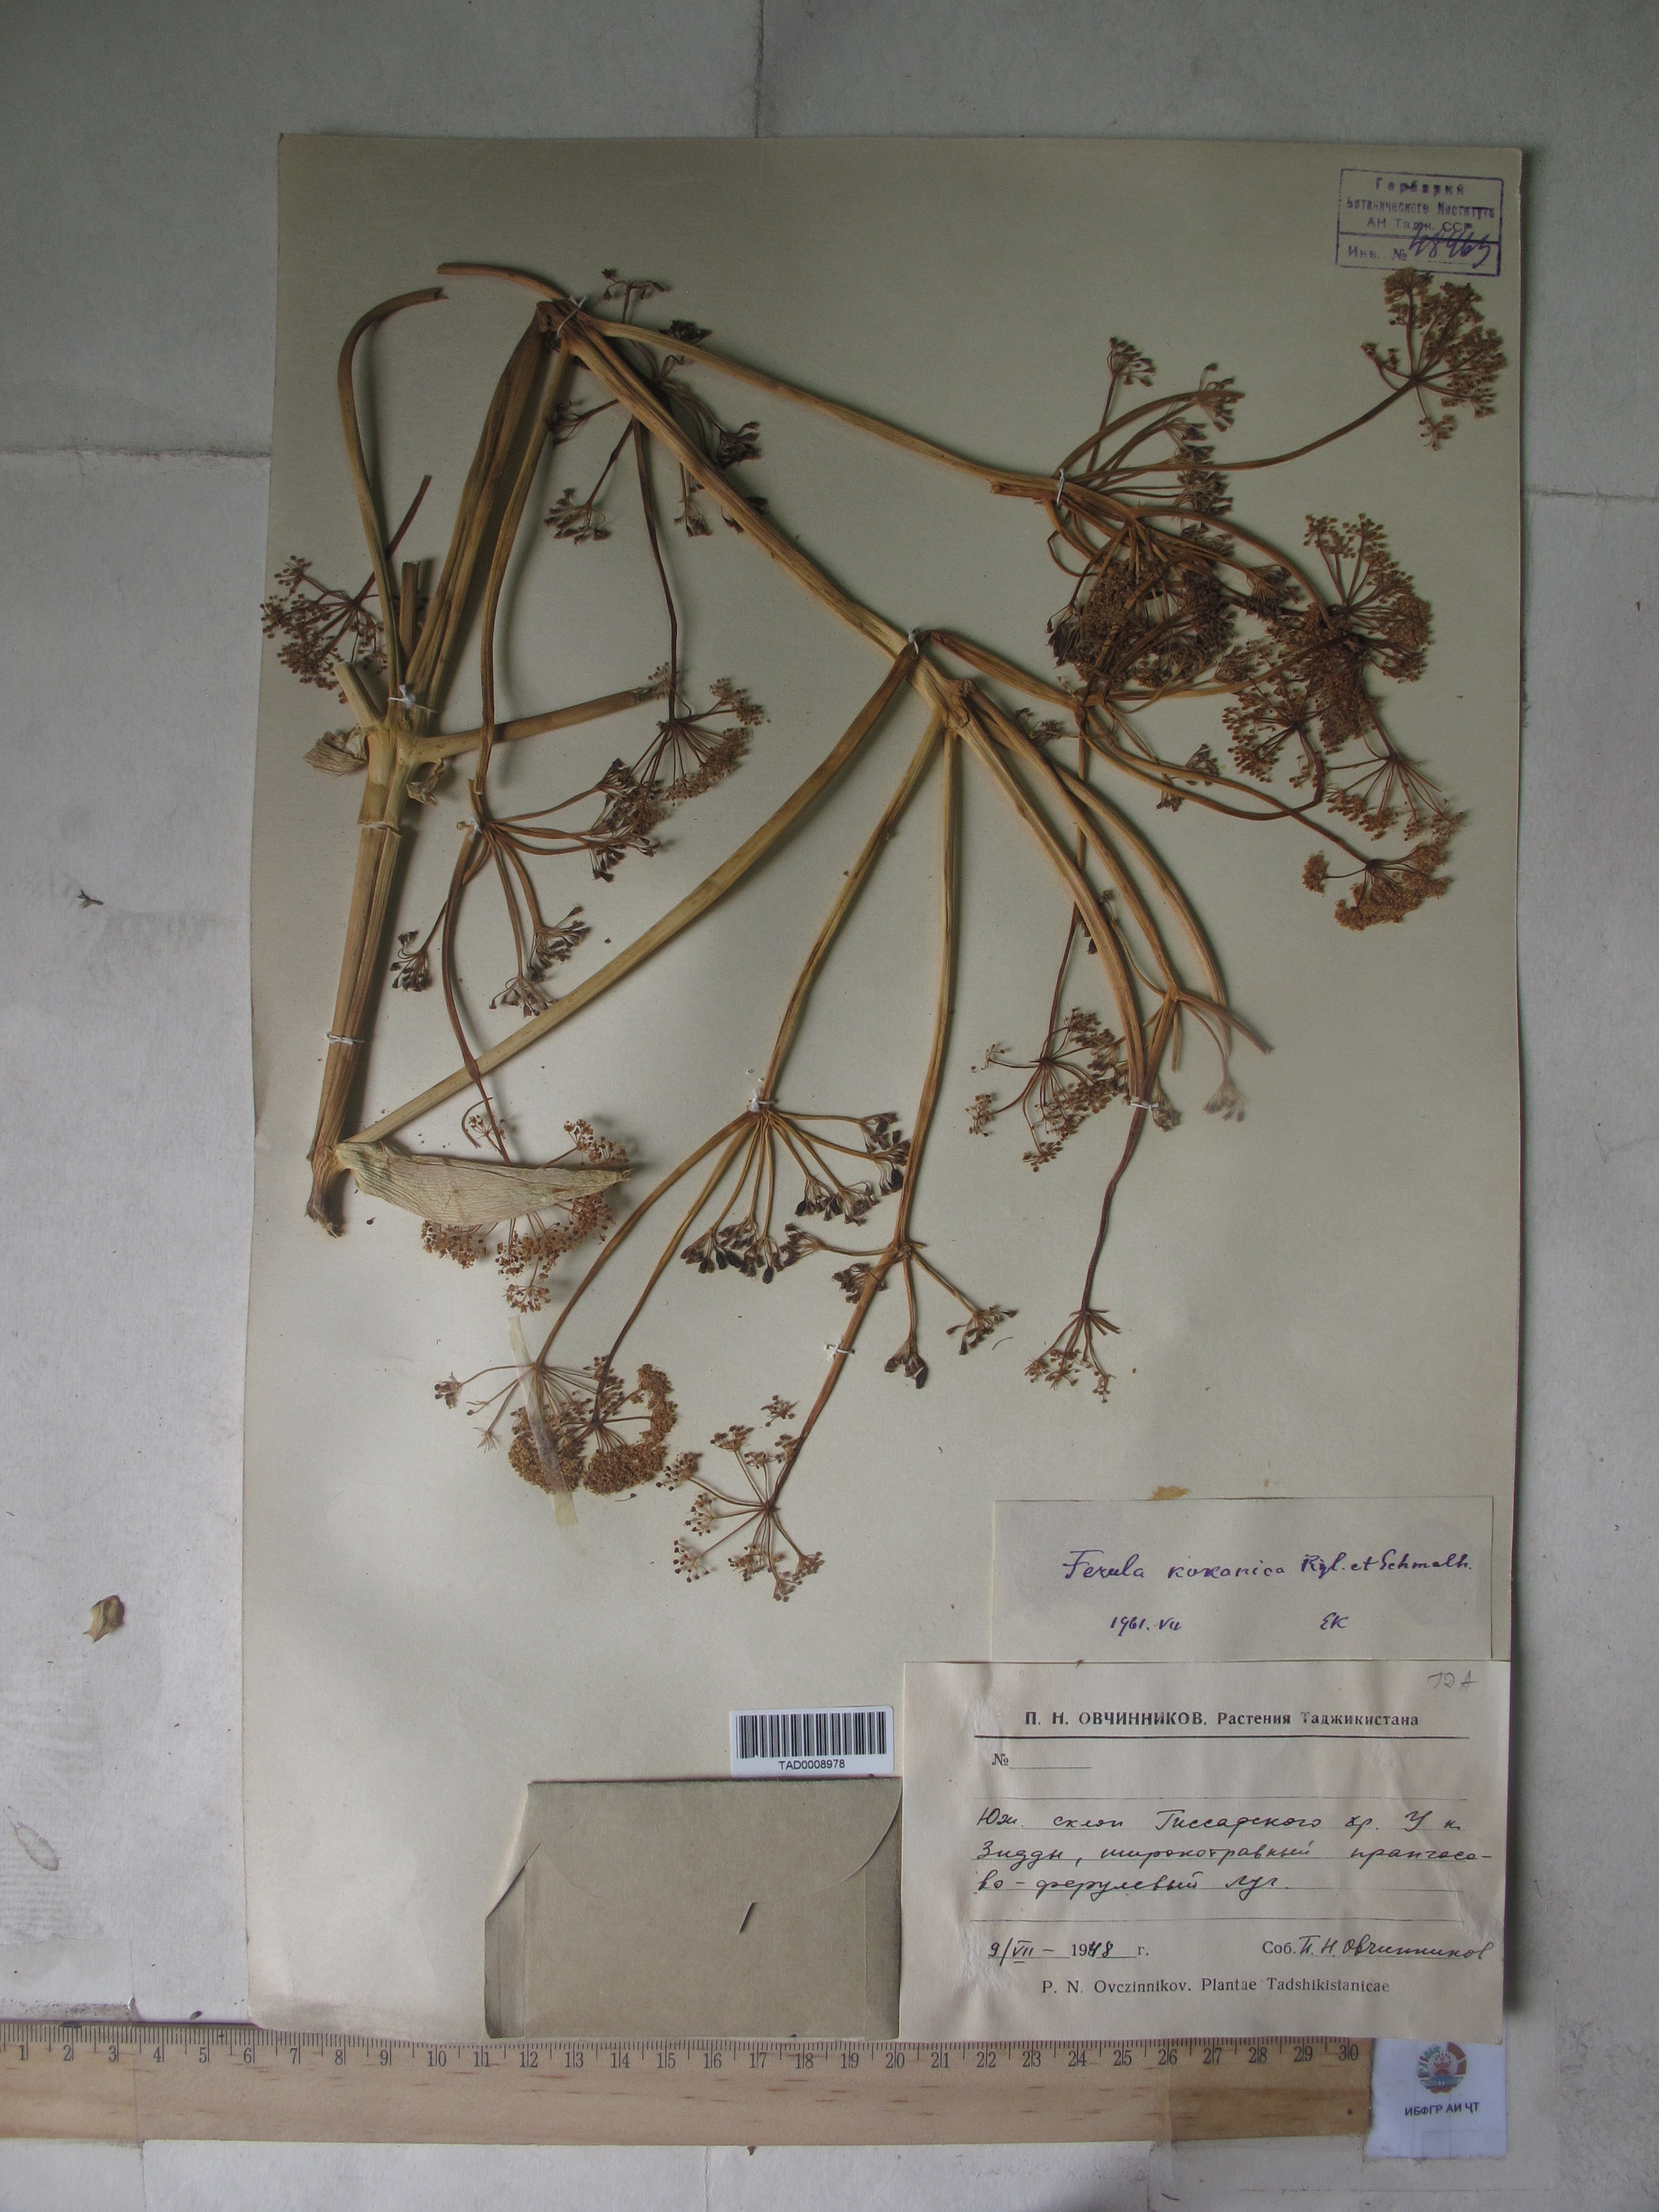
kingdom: Plantae
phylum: Tracheophyta
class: Magnoliopsida
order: Apiales
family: Apiaceae
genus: Ferula
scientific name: Ferula kokanica
